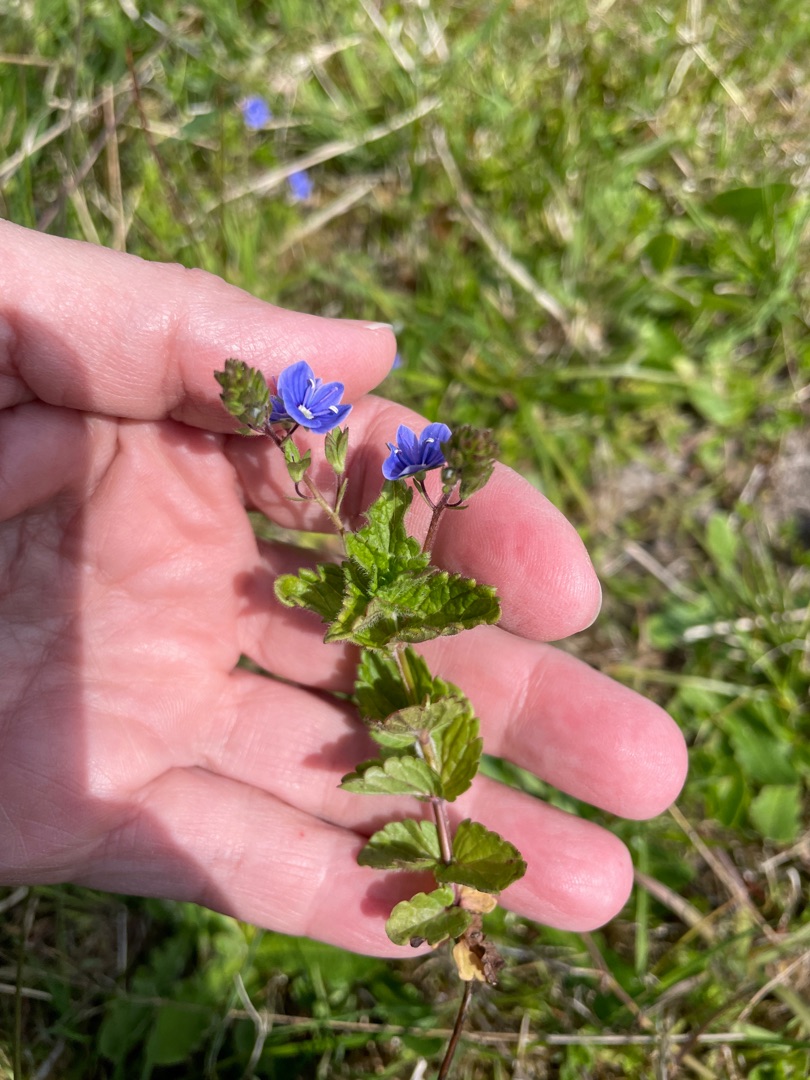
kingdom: Plantae
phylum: Tracheophyta
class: Magnoliopsida
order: Lamiales
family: Plantaginaceae
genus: Veronica
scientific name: Veronica chamaedrys
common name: Tveskægget ærenpris
